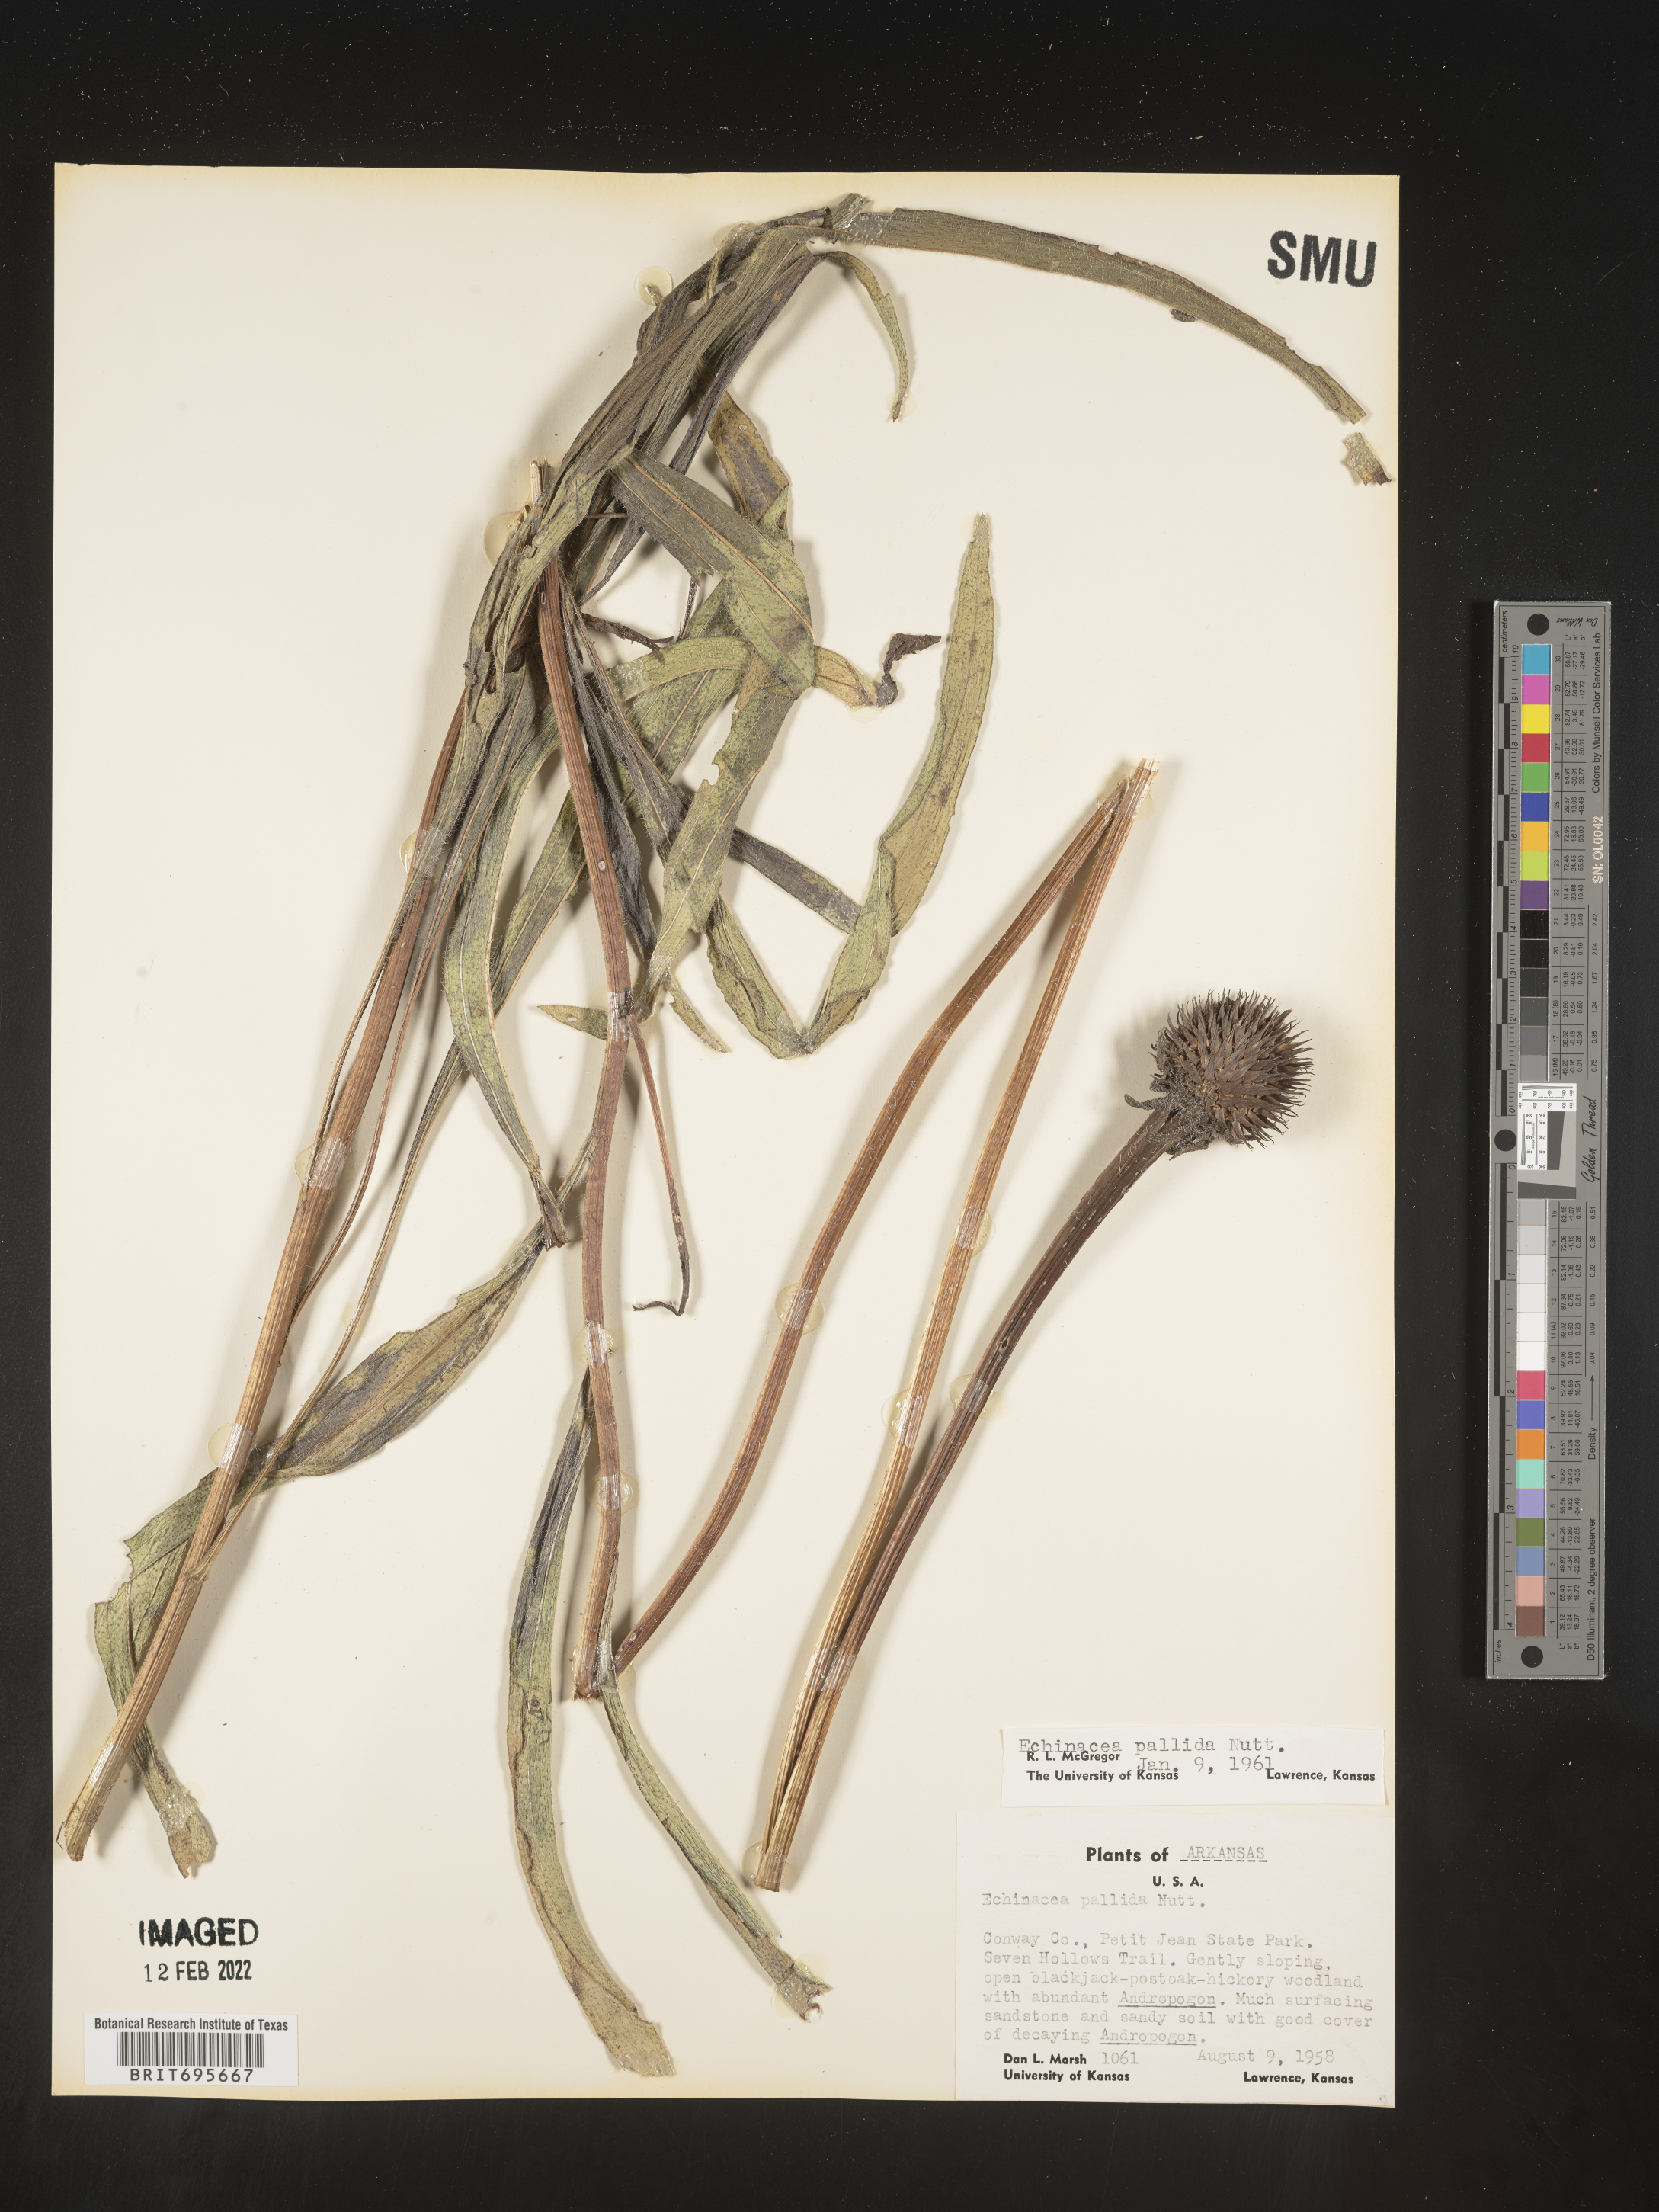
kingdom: Plantae
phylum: Tracheophyta
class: Magnoliopsida
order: Asterales
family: Asteraceae
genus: Echinacea
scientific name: Echinacea pallida
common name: Pale echinacea
